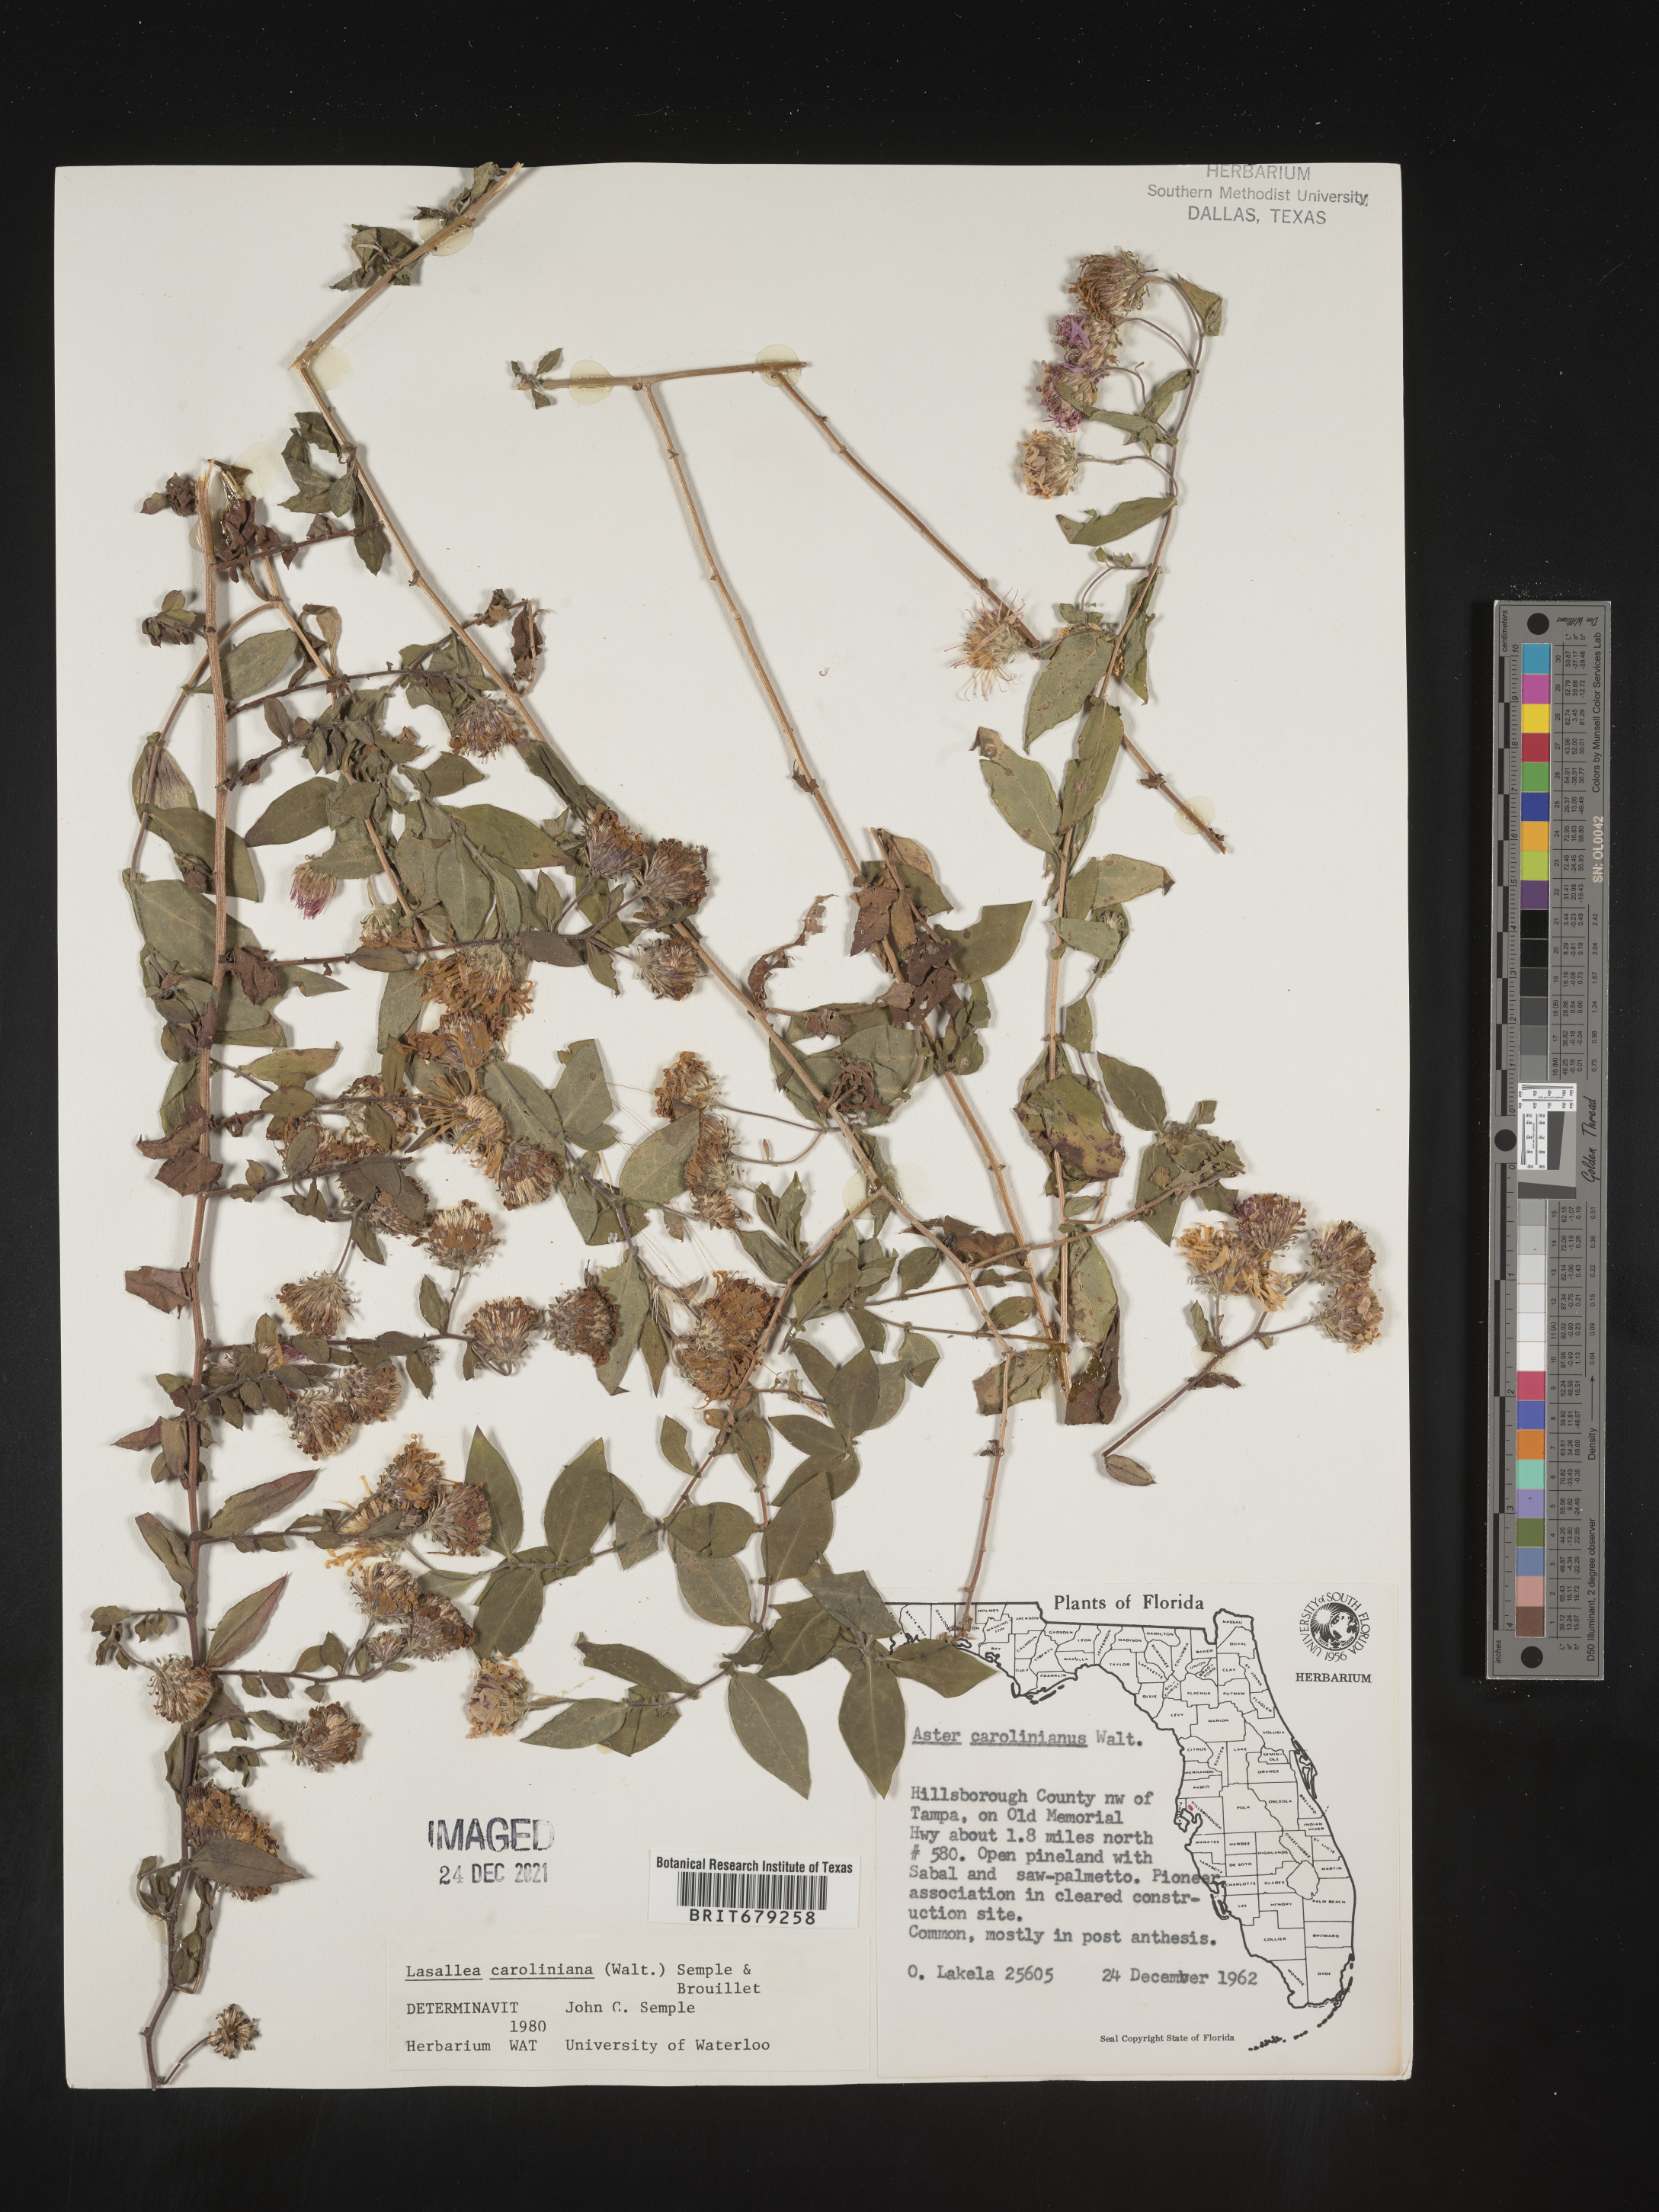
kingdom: Plantae
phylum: Tracheophyta
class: Magnoliopsida
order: Asterales
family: Asteraceae
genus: Ampelaster
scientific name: Ampelaster
